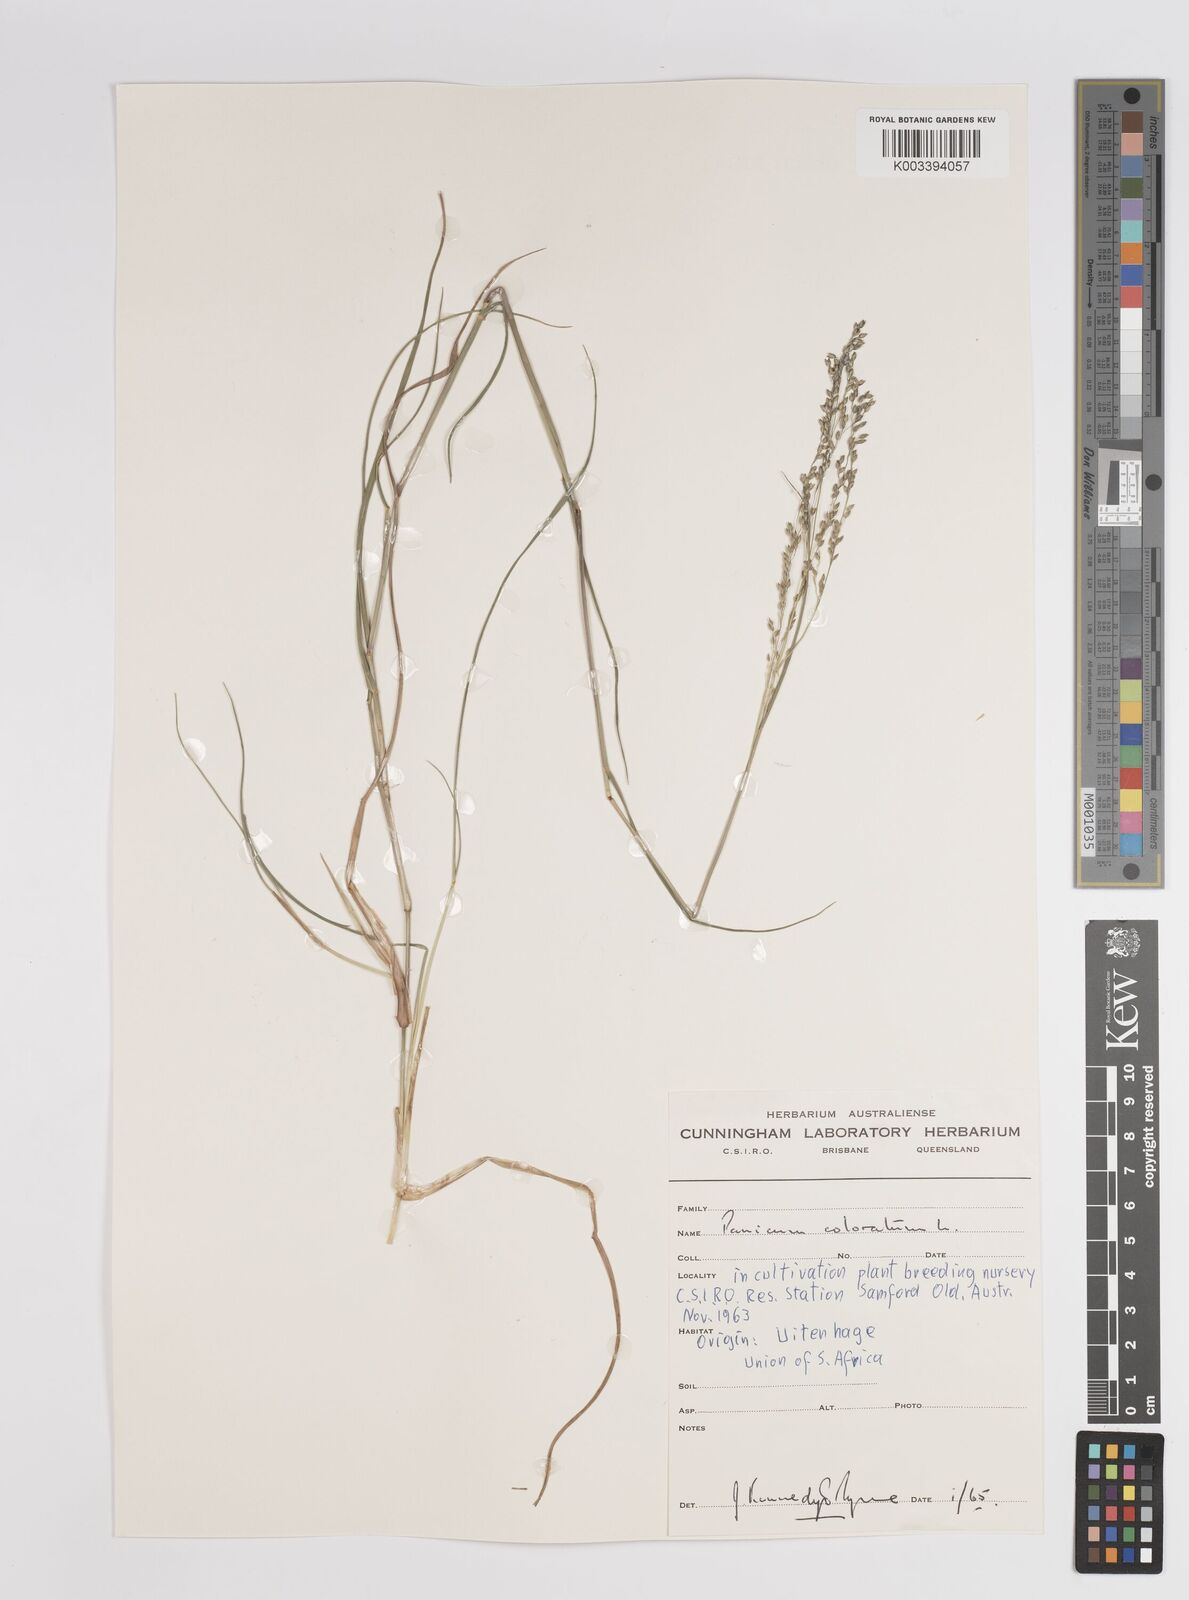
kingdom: Plantae
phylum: Tracheophyta
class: Liliopsida
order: Poales
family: Poaceae
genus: Panicum
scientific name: Panicum coloratum
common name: Kleingrass
